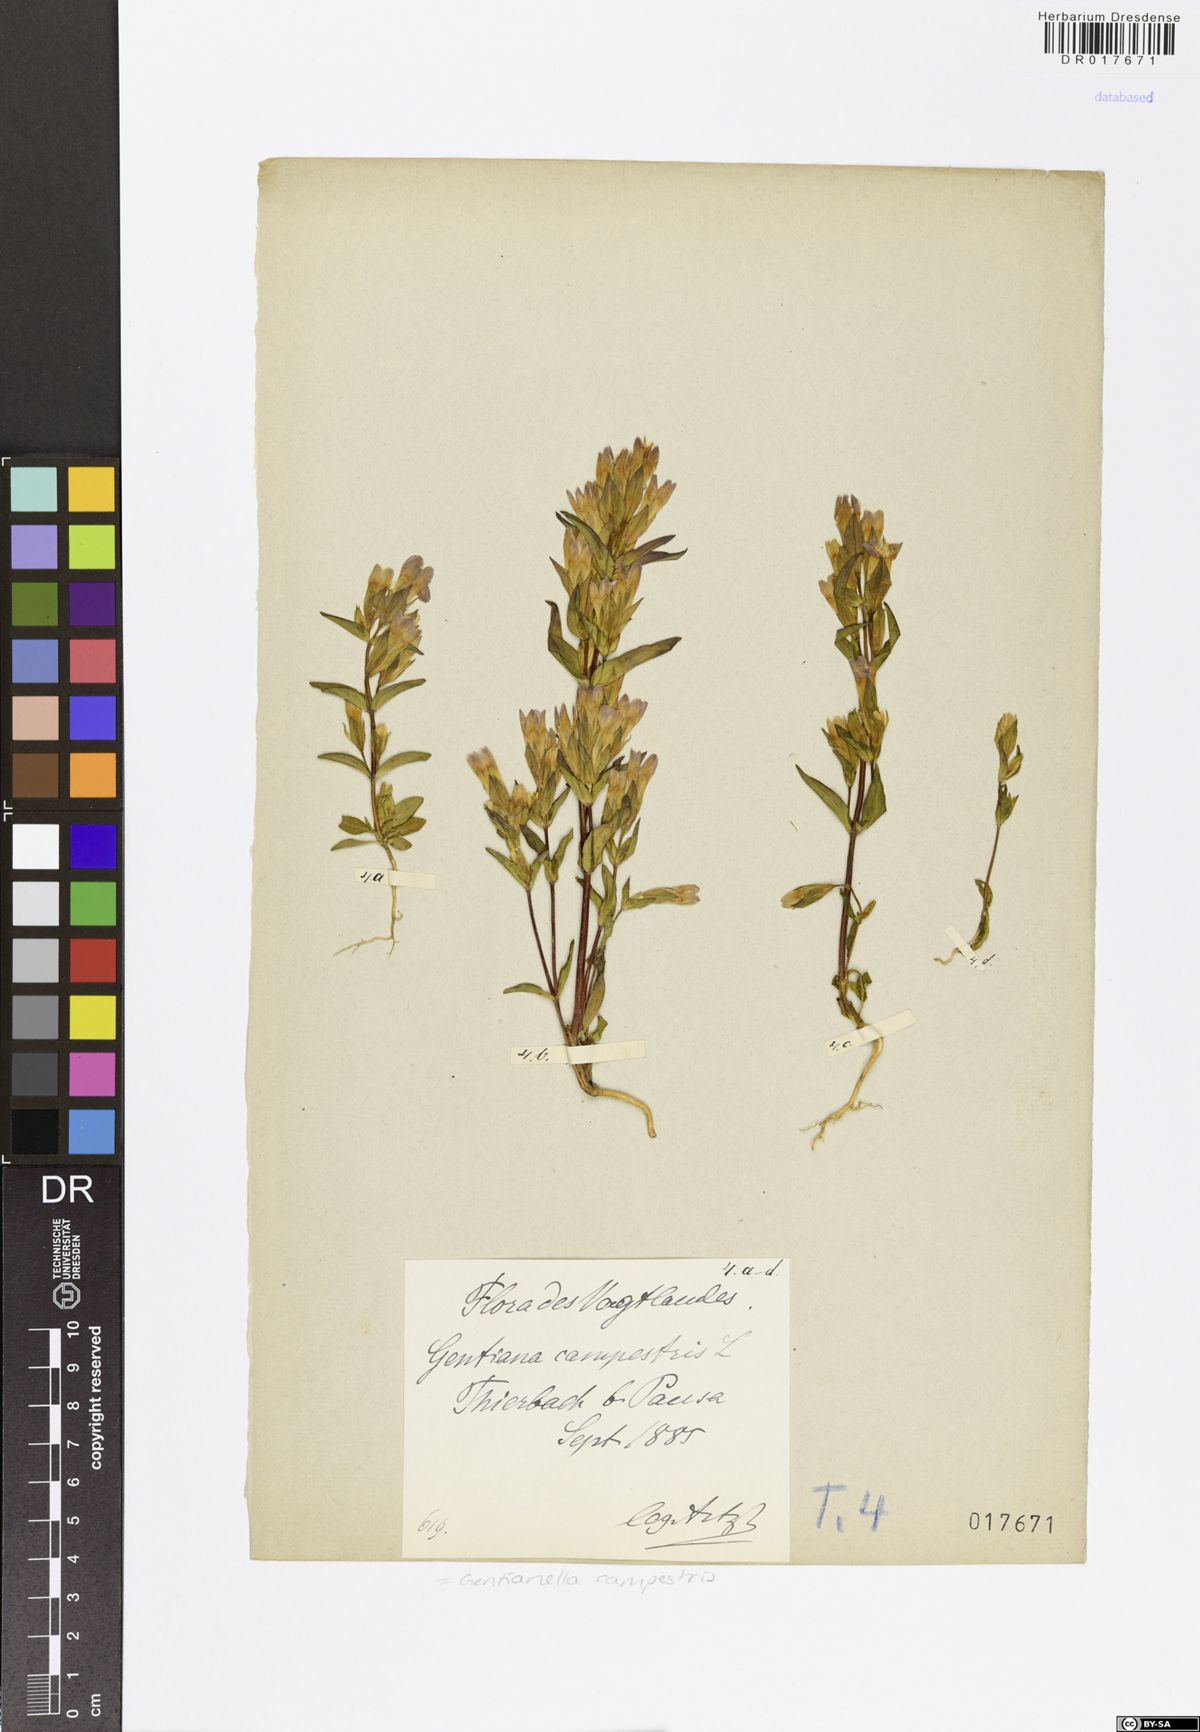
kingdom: Plantae
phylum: Tracheophyta
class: Magnoliopsida
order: Gentianales
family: Gentianaceae
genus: Gentianella
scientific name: Gentianella campestris
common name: Field gentian
